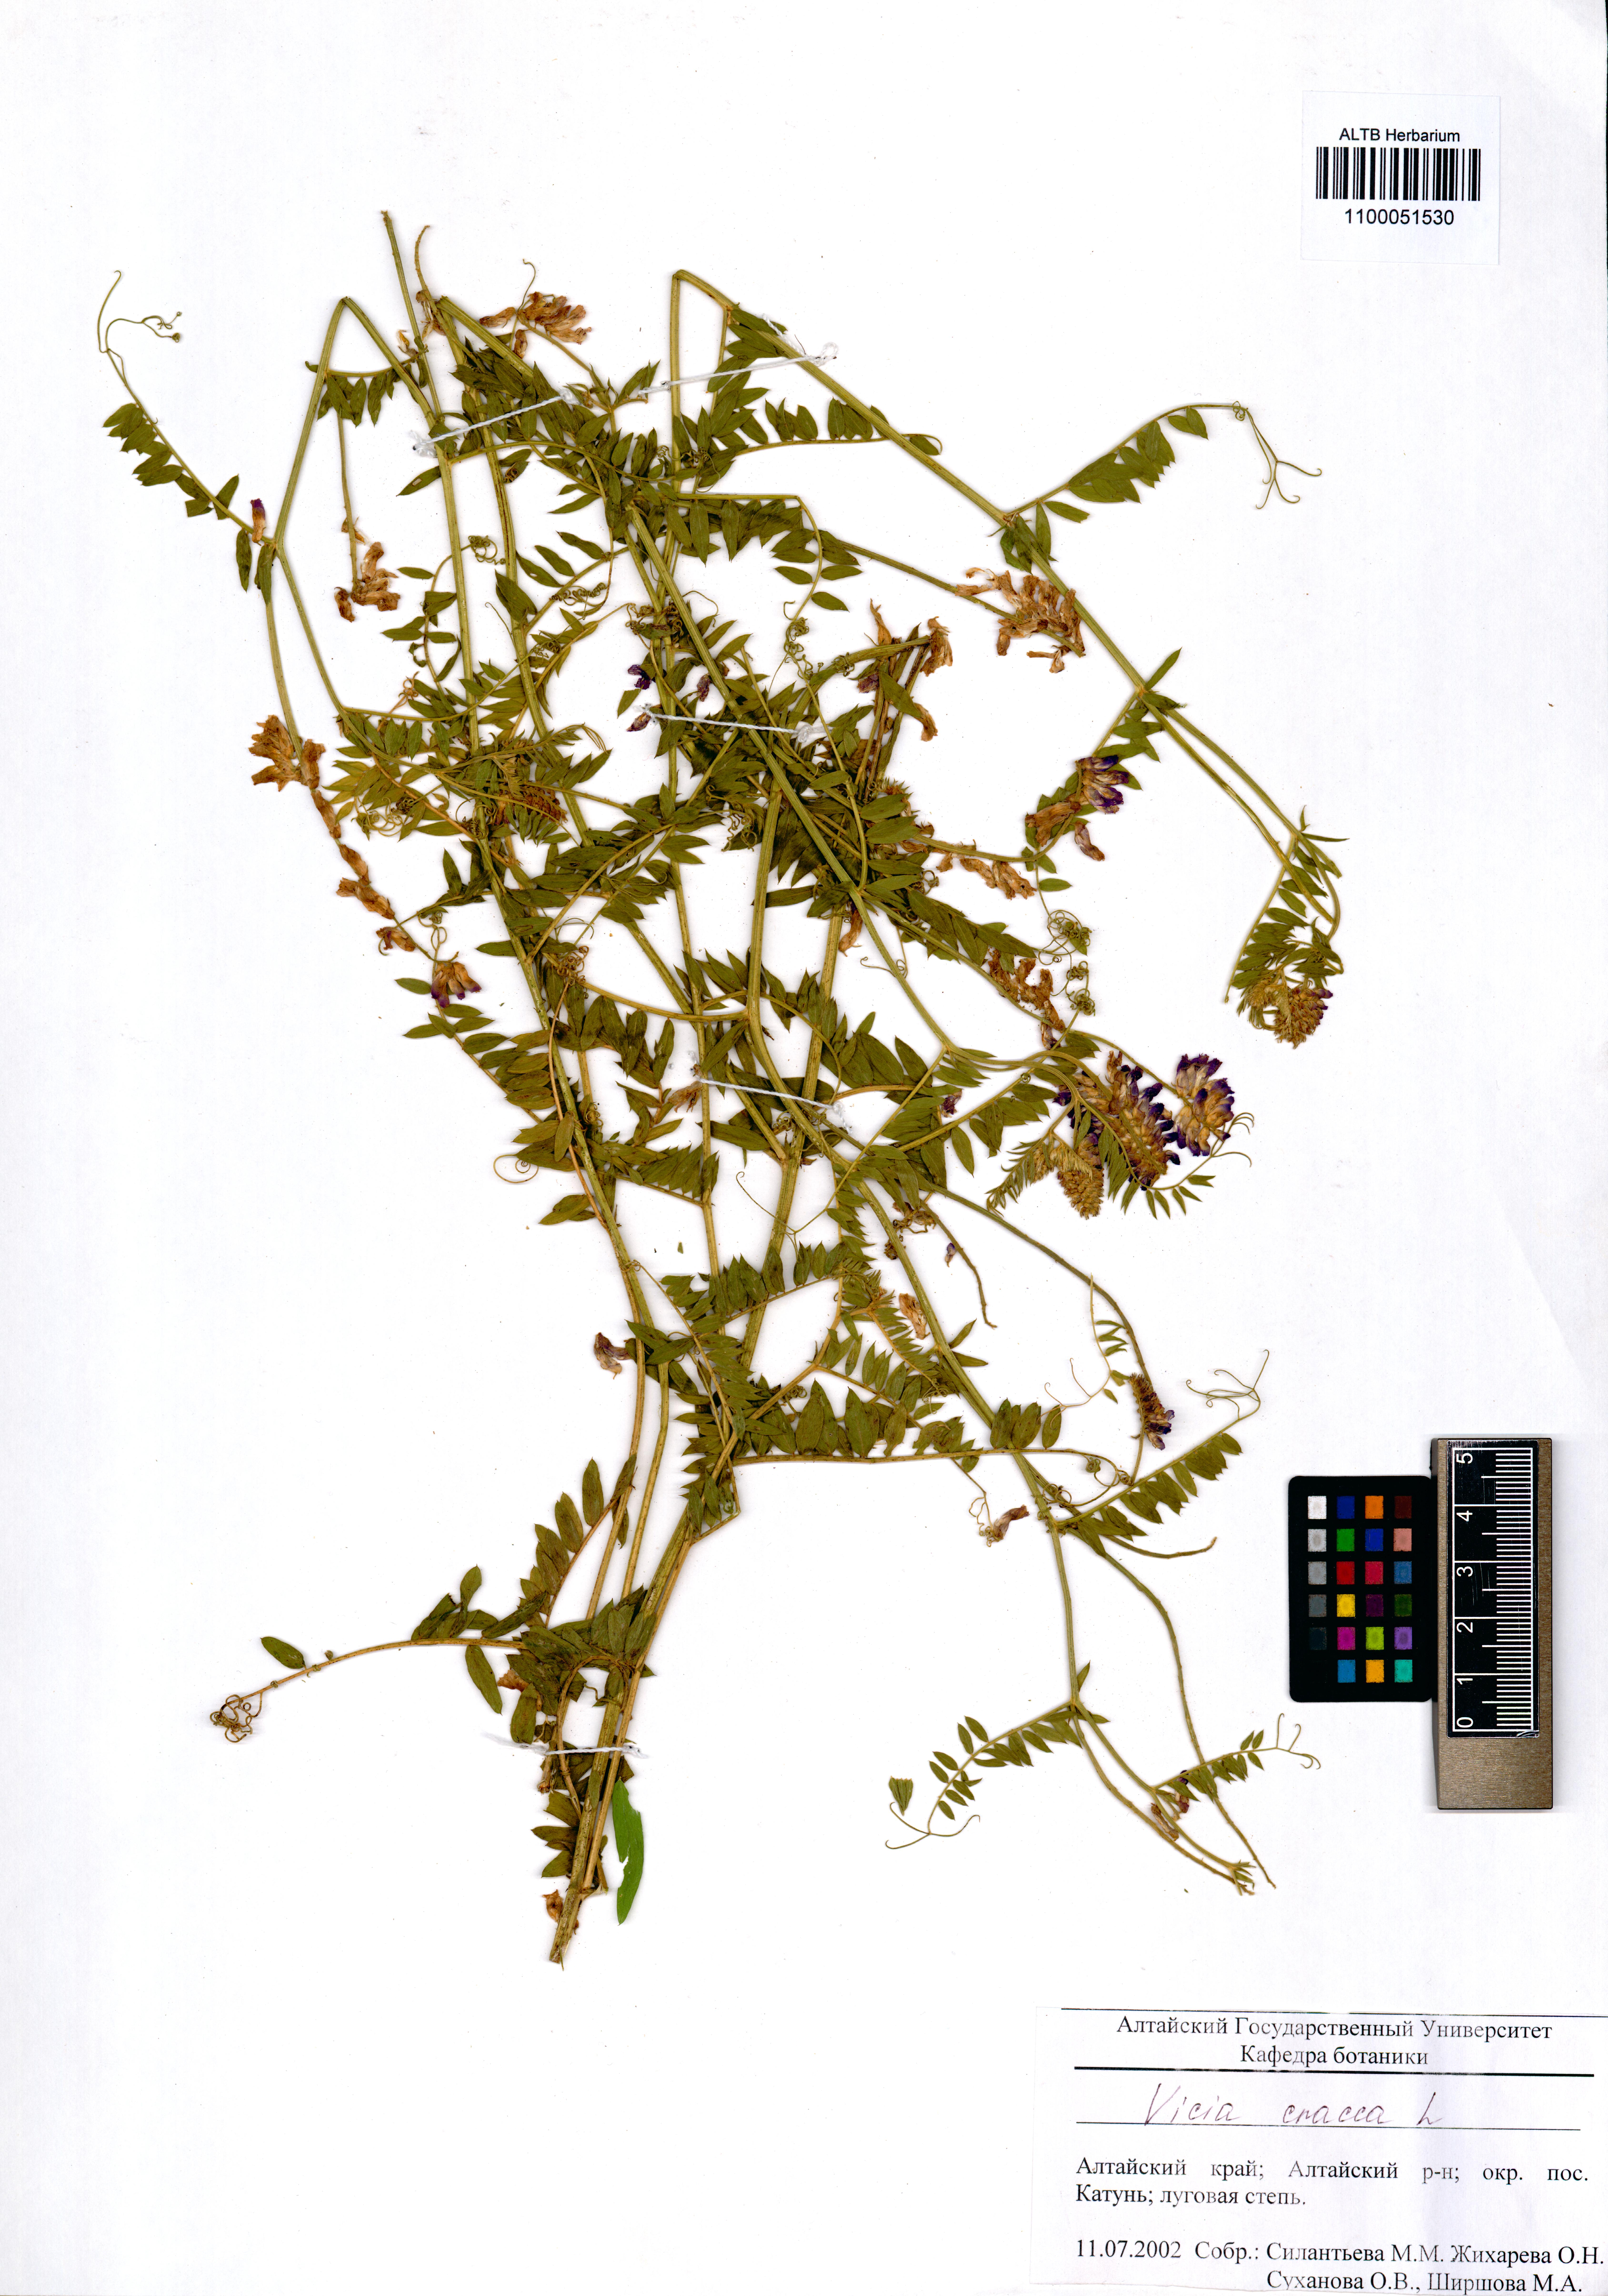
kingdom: Plantae
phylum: Tracheophyta
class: Magnoliopsida
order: Fabales
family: Fabaceae
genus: Vicia
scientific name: Vicia cracca
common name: Bird vetch
